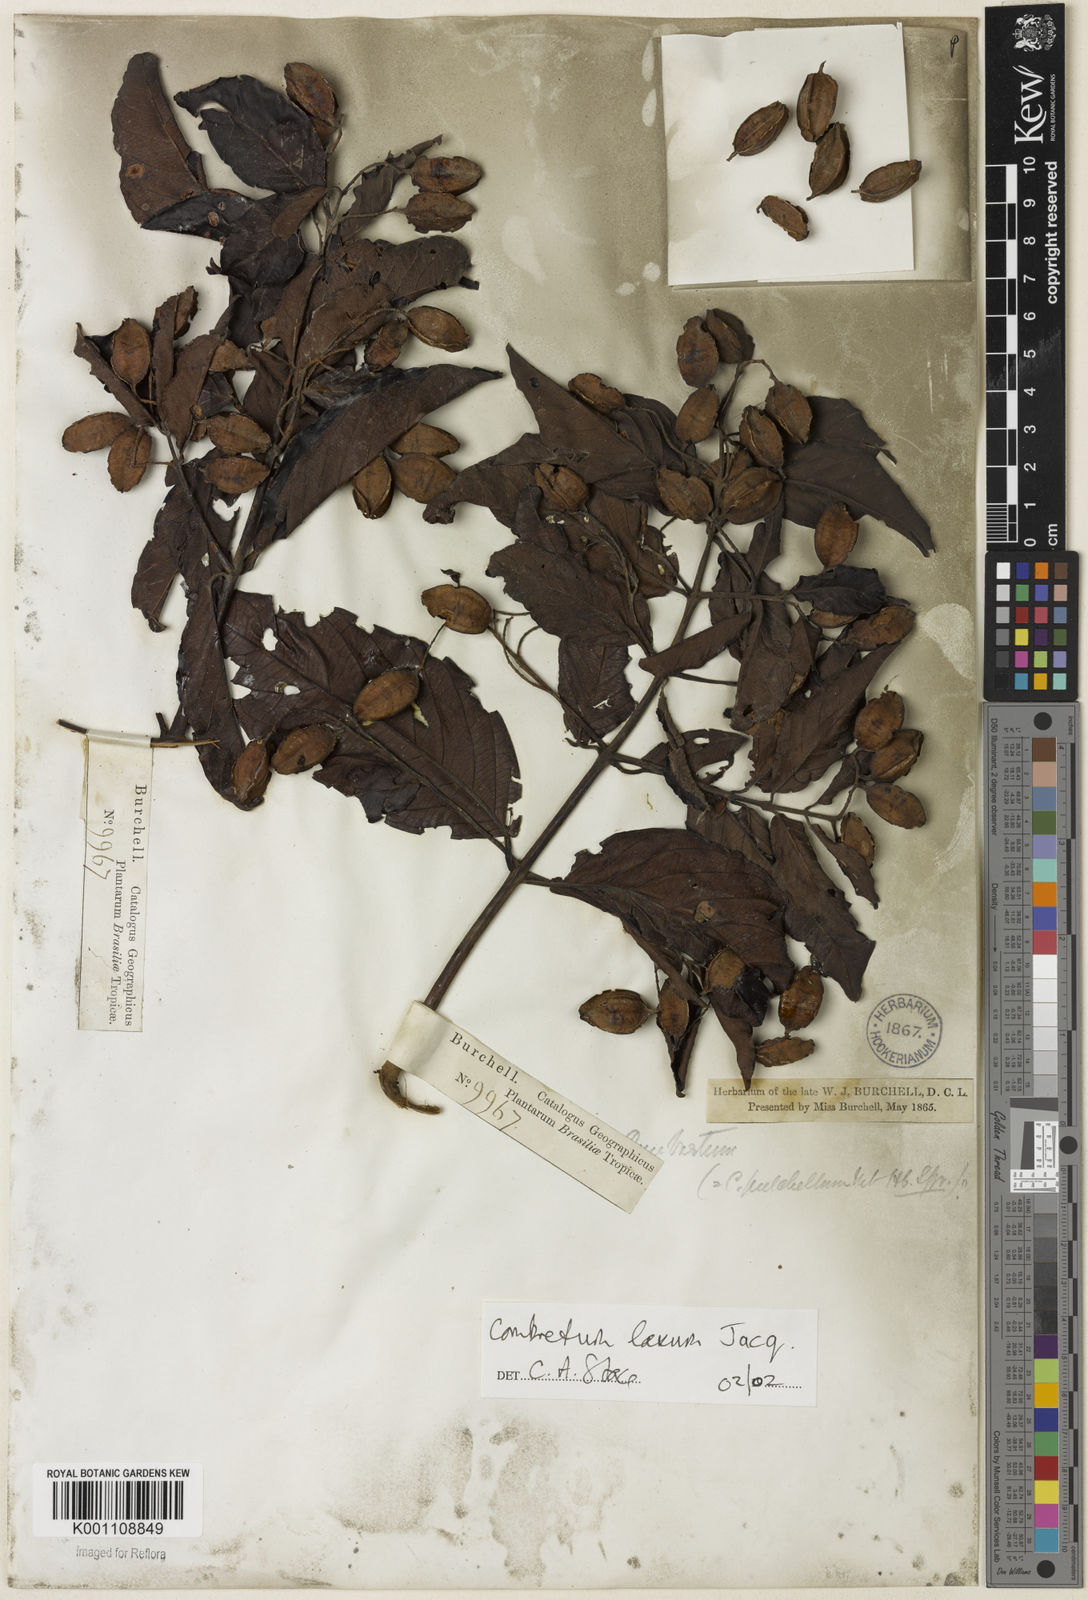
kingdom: Plantae
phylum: Tracheophyta
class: Magnoliopsida
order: Myrtales
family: Combretaceae
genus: Combretum
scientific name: Combretum laxum
